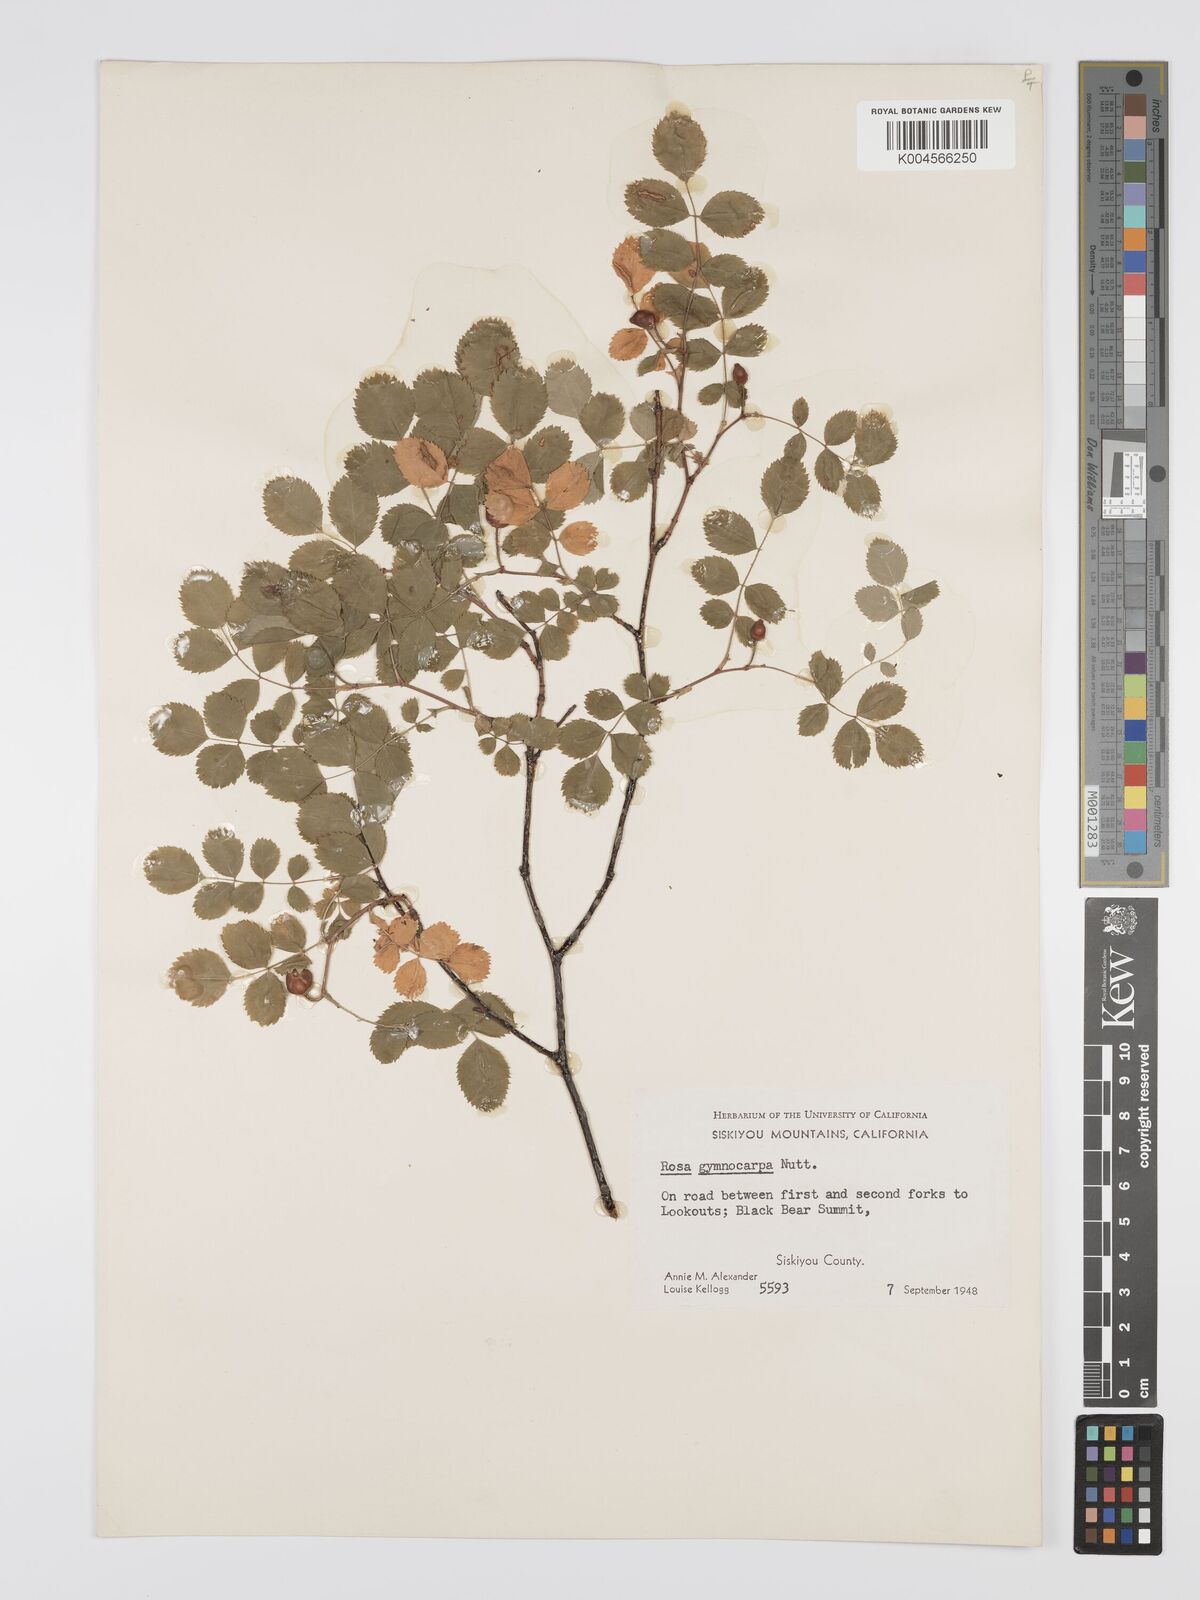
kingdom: Plantae
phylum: Tracheophyta
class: Magnoliopsida
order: Rosales
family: Rosaceae
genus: Rosa
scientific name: Rosa gymnocarpa
